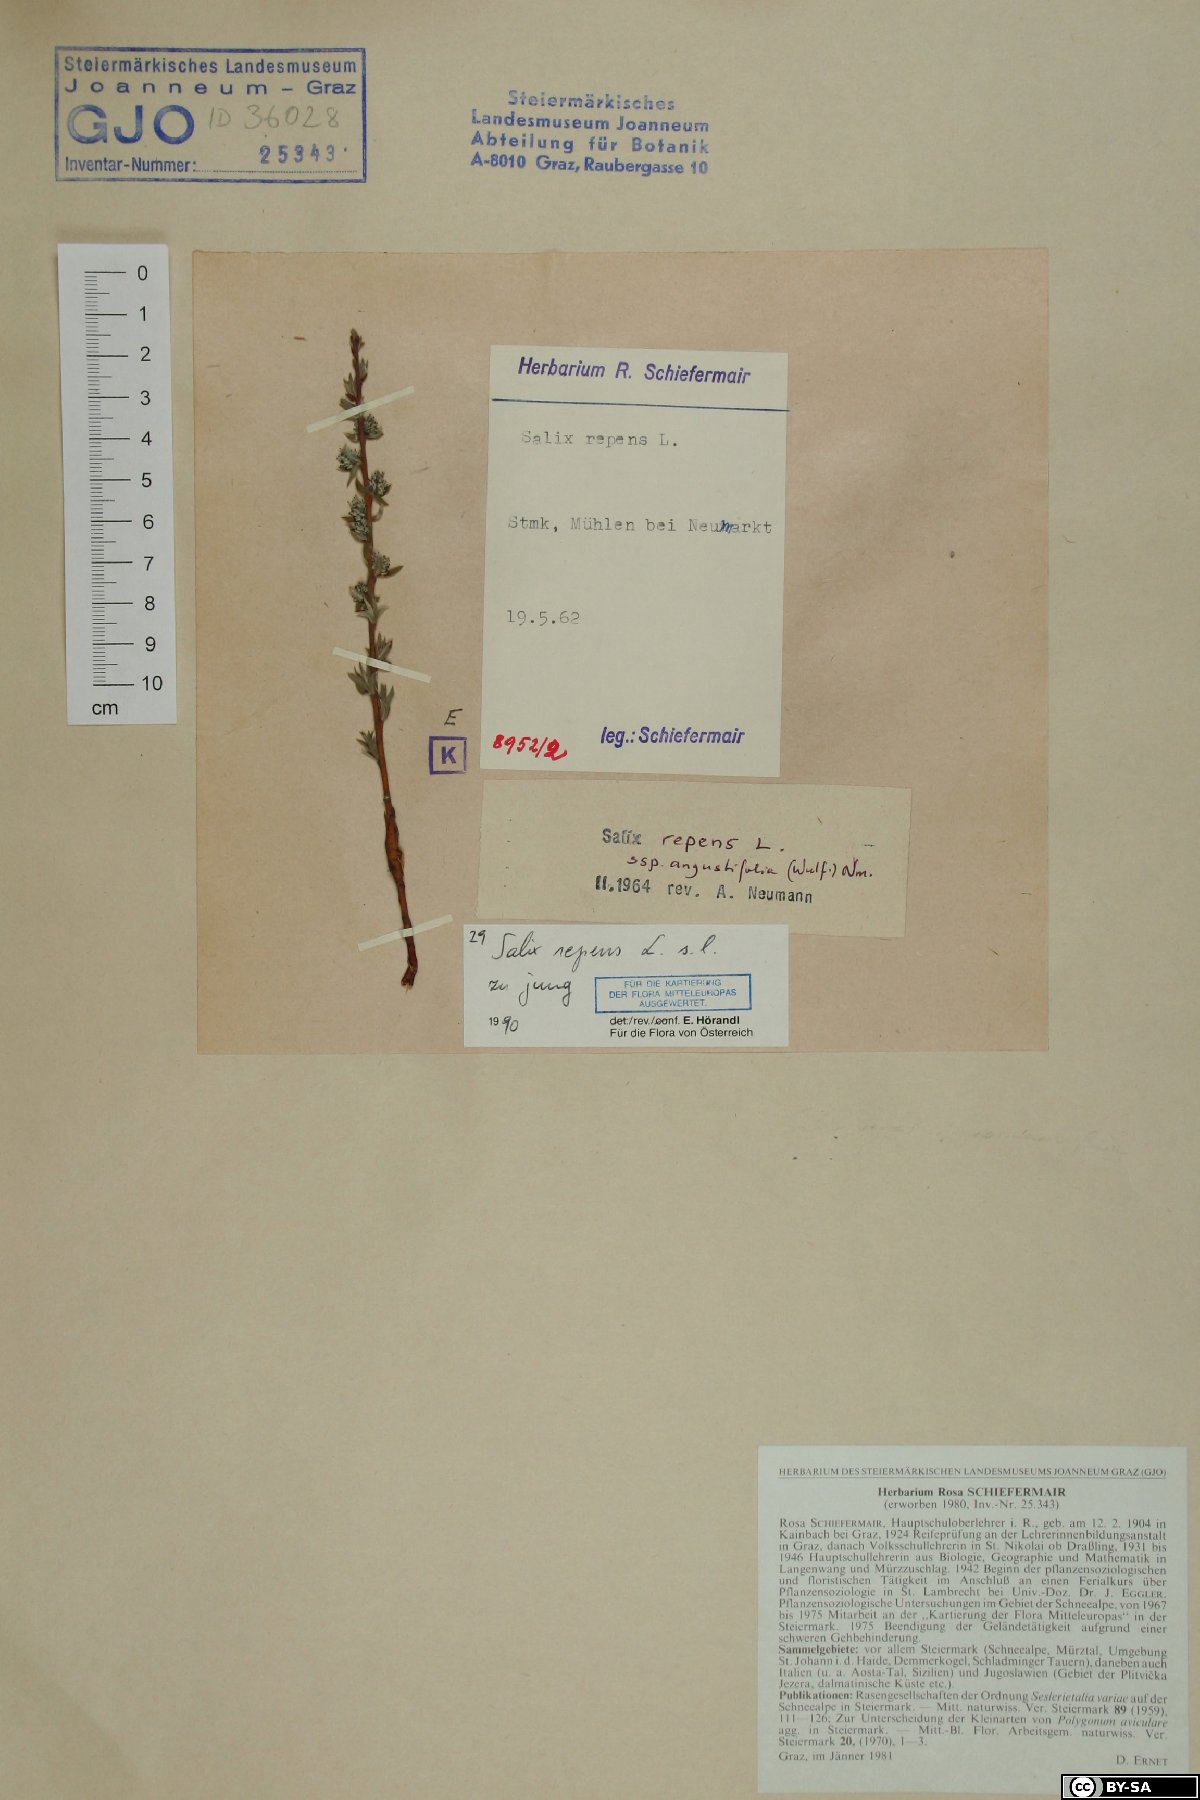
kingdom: Plantae
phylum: Tracheophyta
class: Magnoliopsida
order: Malpighiales
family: Salicaceae
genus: Salix
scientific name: Salix repens
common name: Creeping willow
